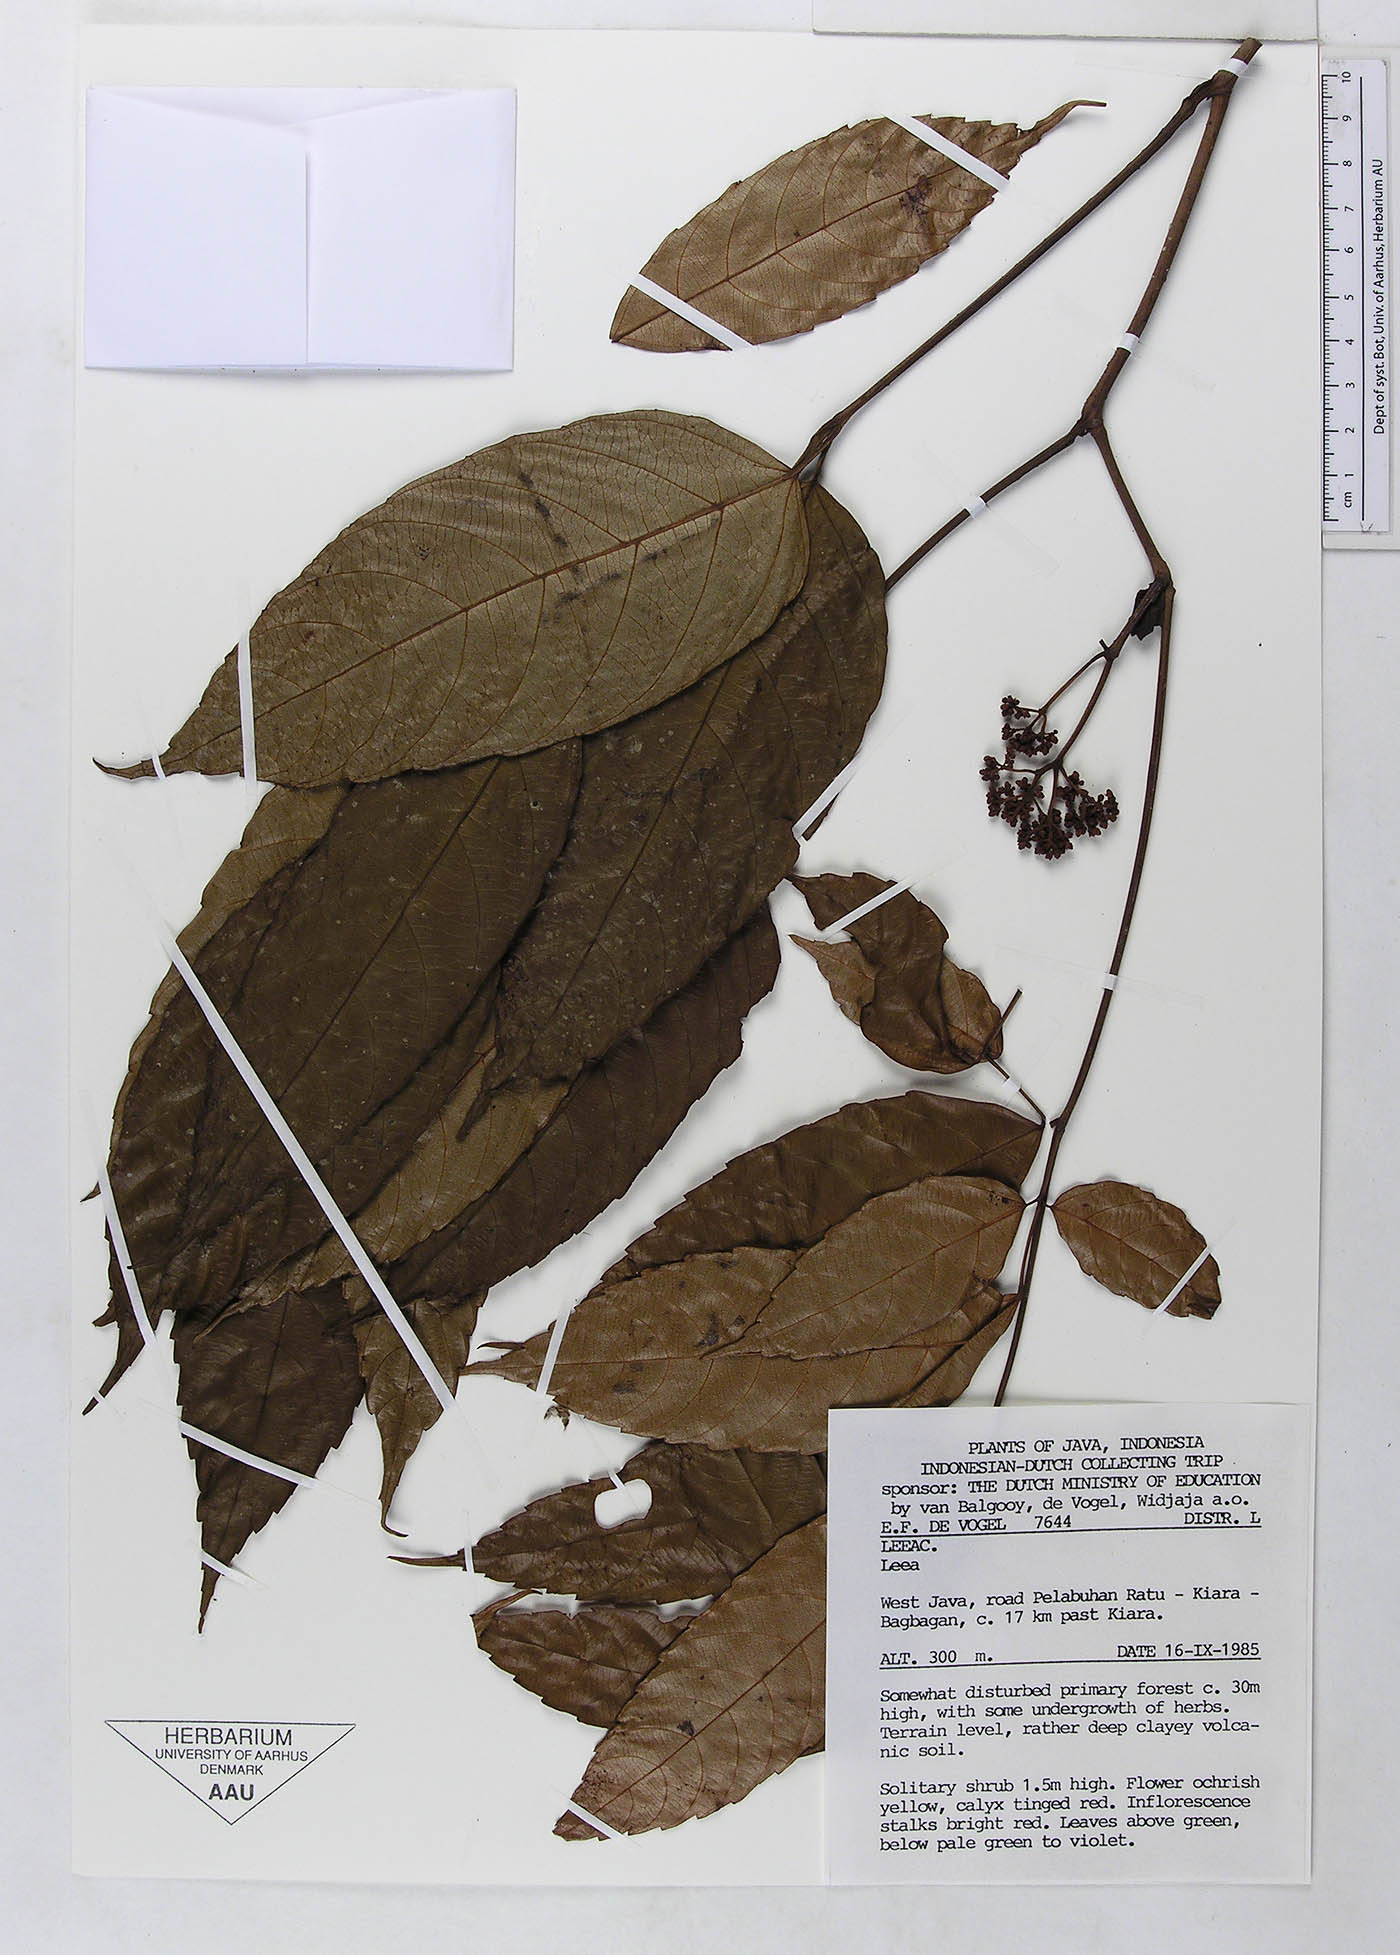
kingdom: Plantae
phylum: Tracheophyta
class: Magnoliopsida
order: Vitales
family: Vitaceae
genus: Leea
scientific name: Leea indica
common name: Bandicoot-berry
